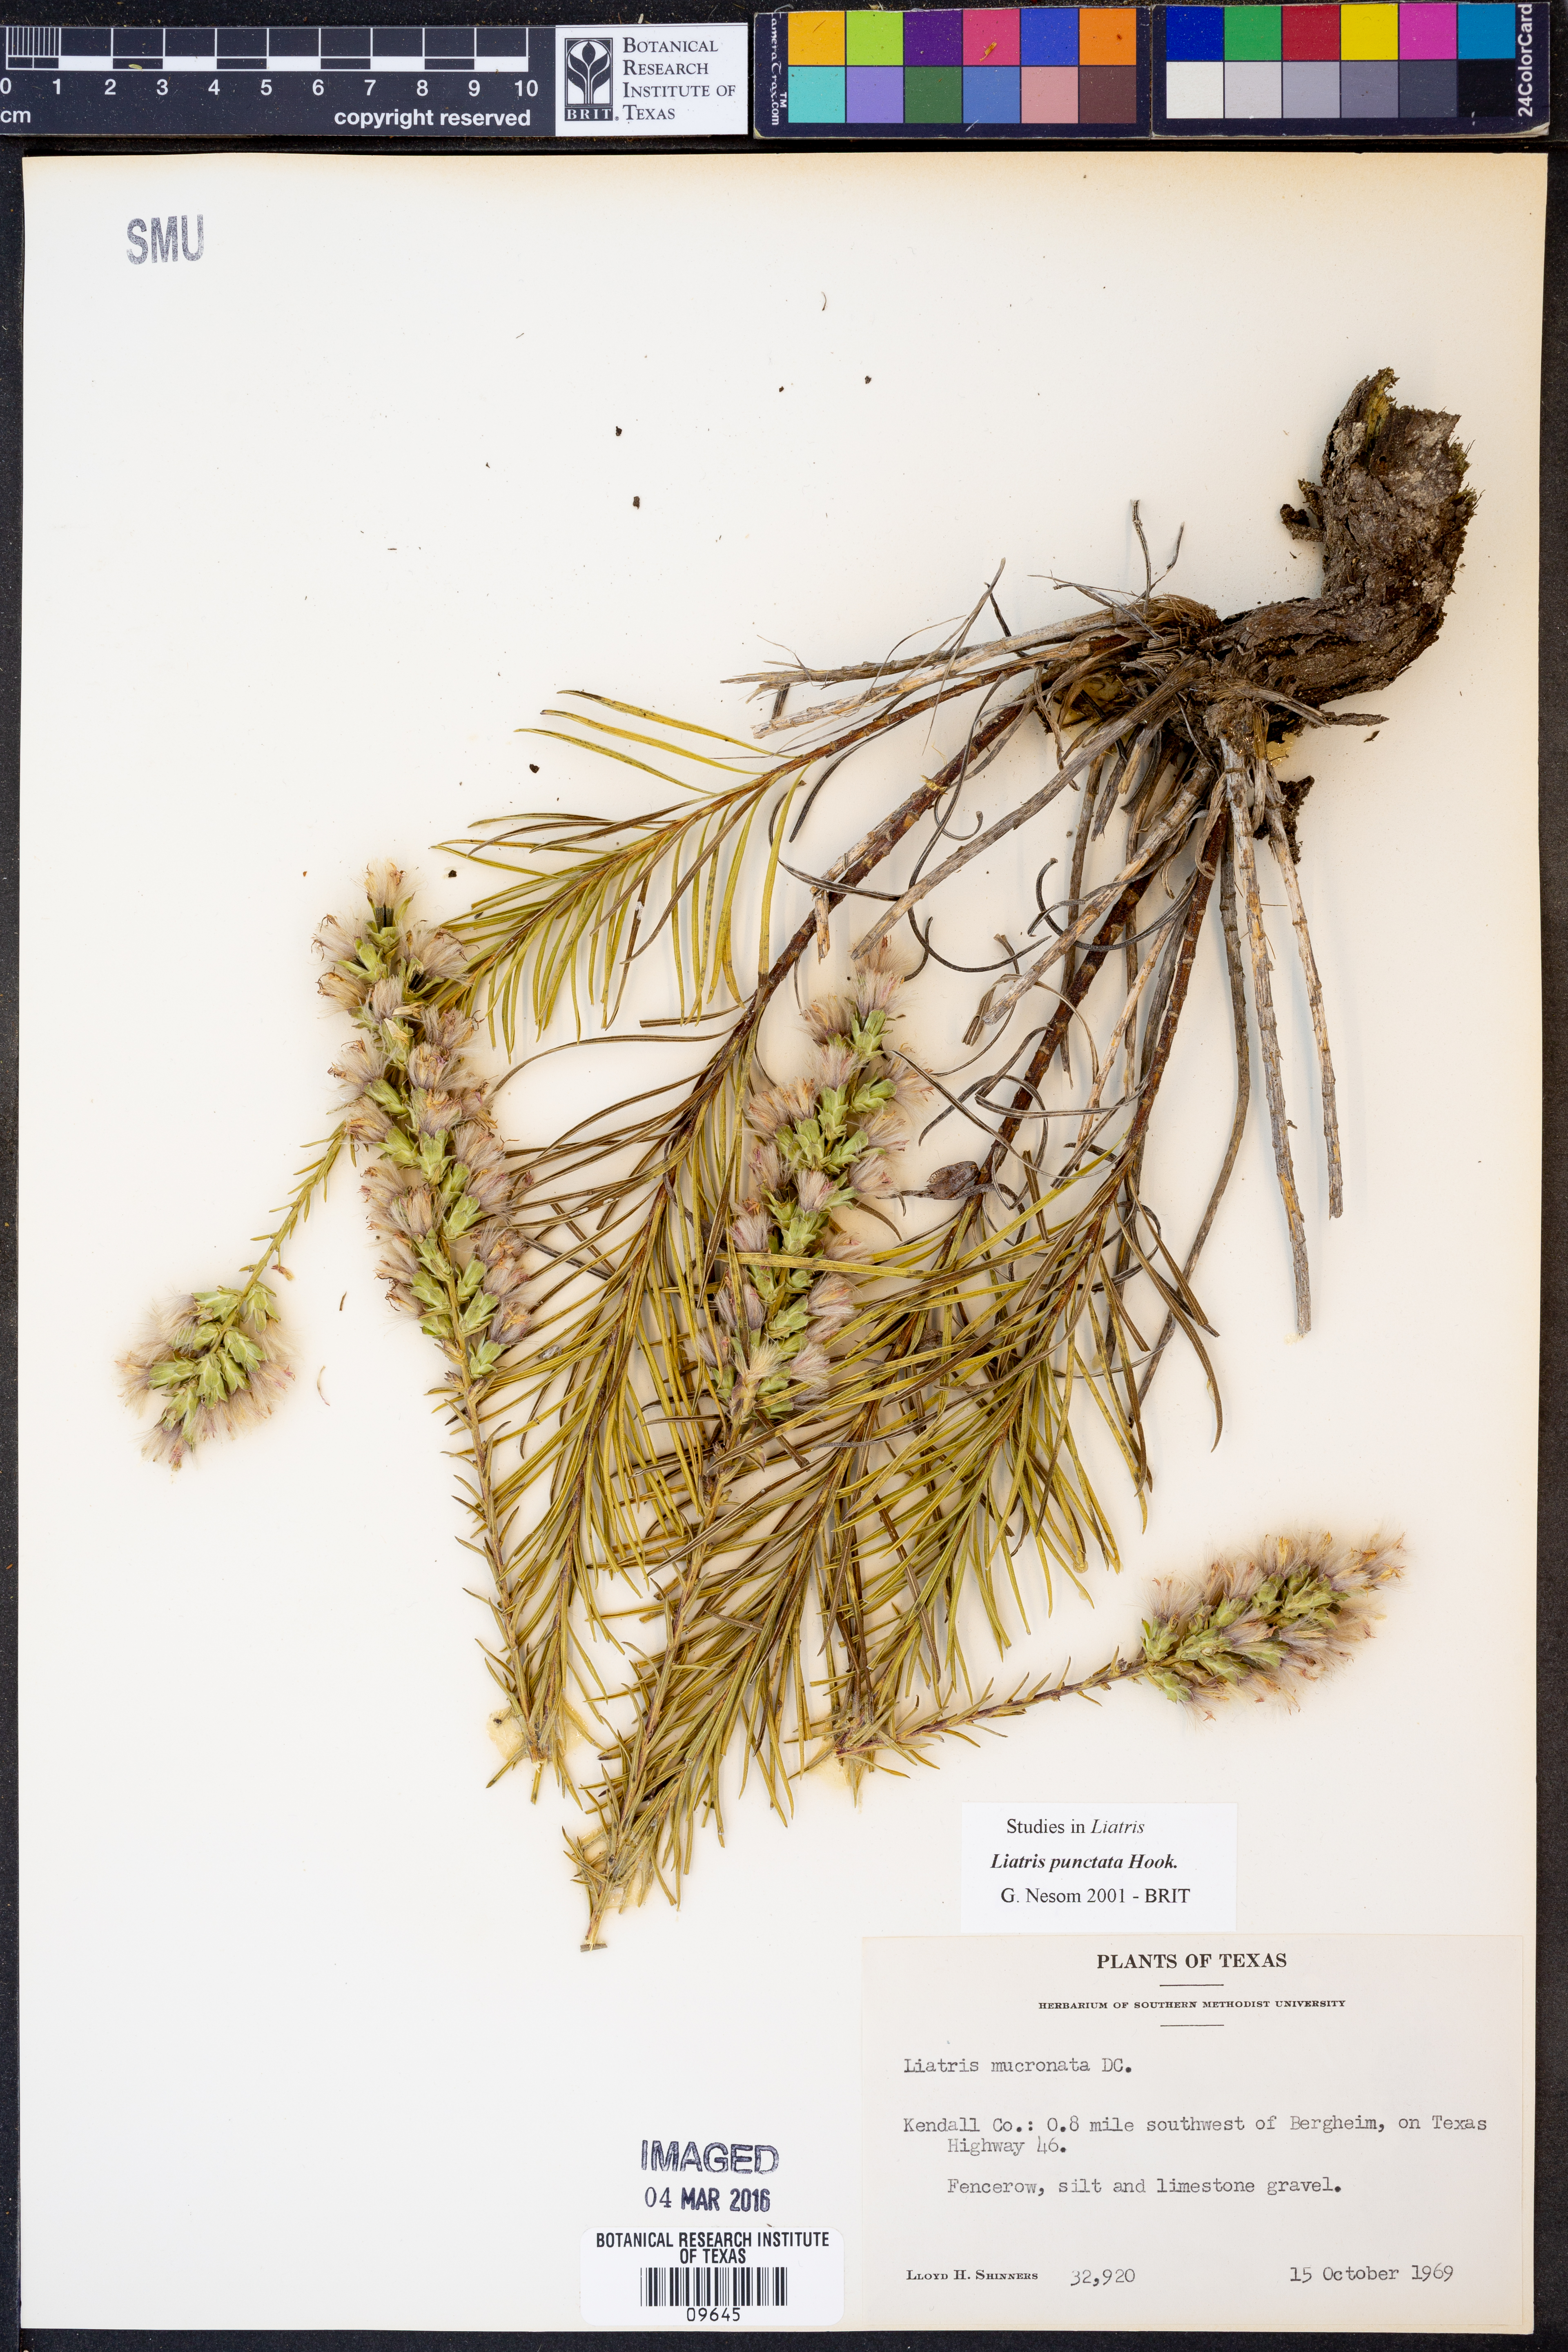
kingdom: Plantae
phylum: Tracheophyta
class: Magnoliopsida
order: Asterales
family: Asteraceae
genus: Liatris
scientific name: Liatris punctata
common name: Dotted gayfeather
